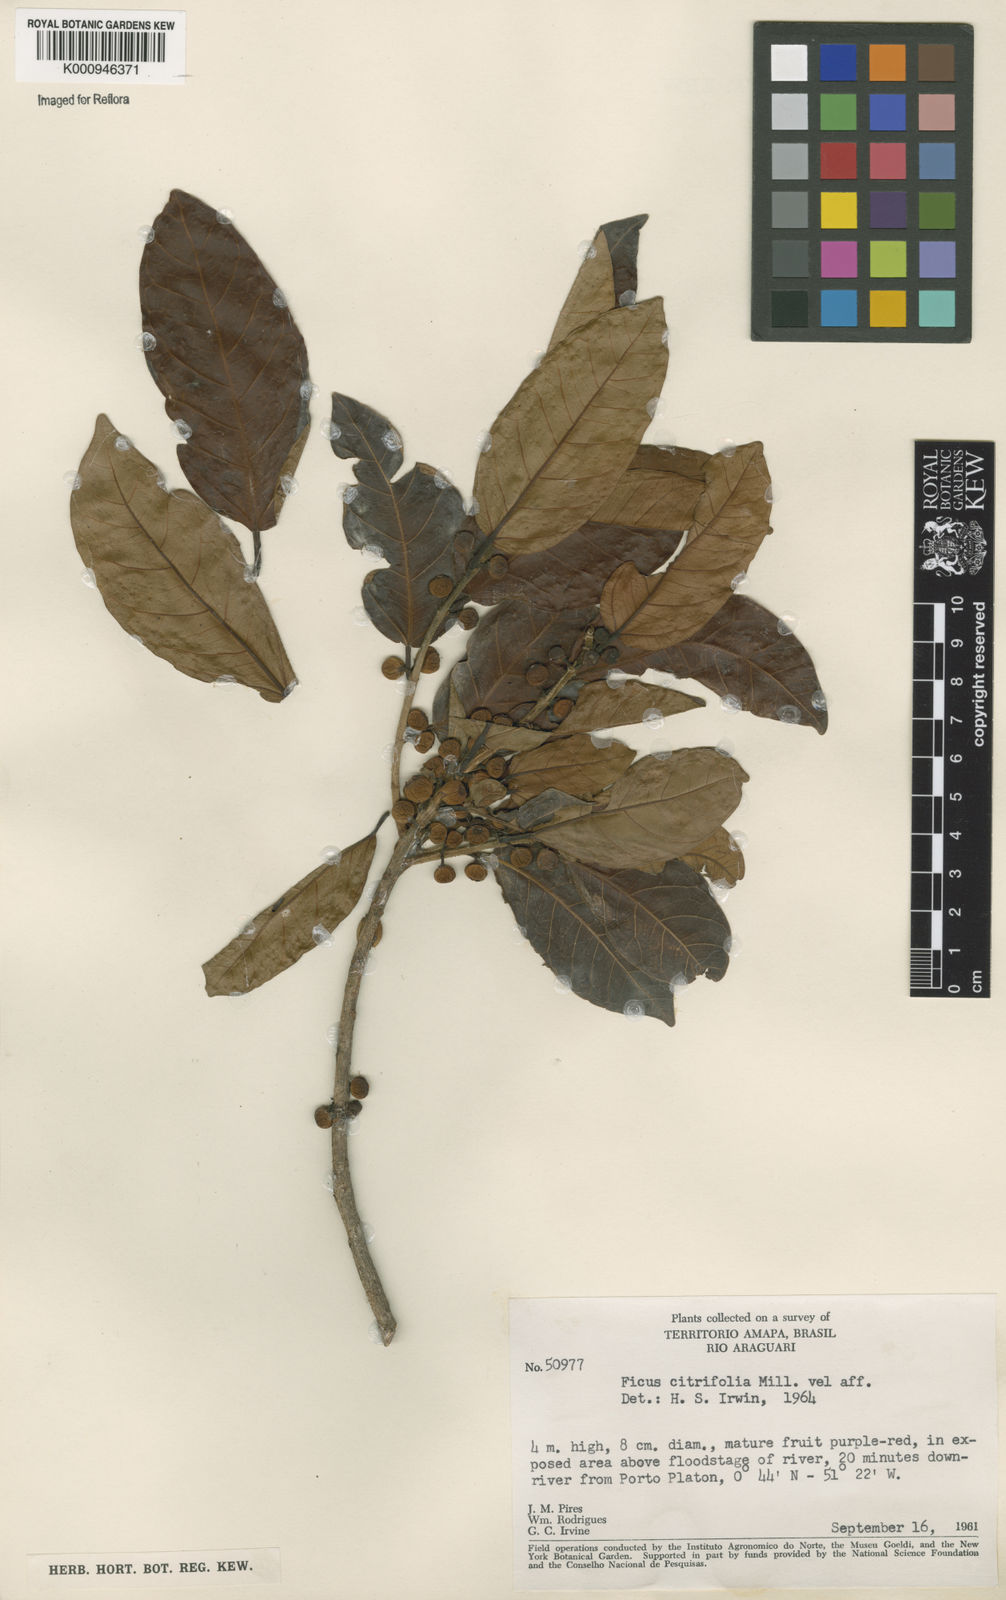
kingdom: Plantae
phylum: Tracheophyta
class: Magnoliopsida
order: Rosales
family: Moraceae
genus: Ficus
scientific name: Ficus citrifolia
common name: Strangler fig
